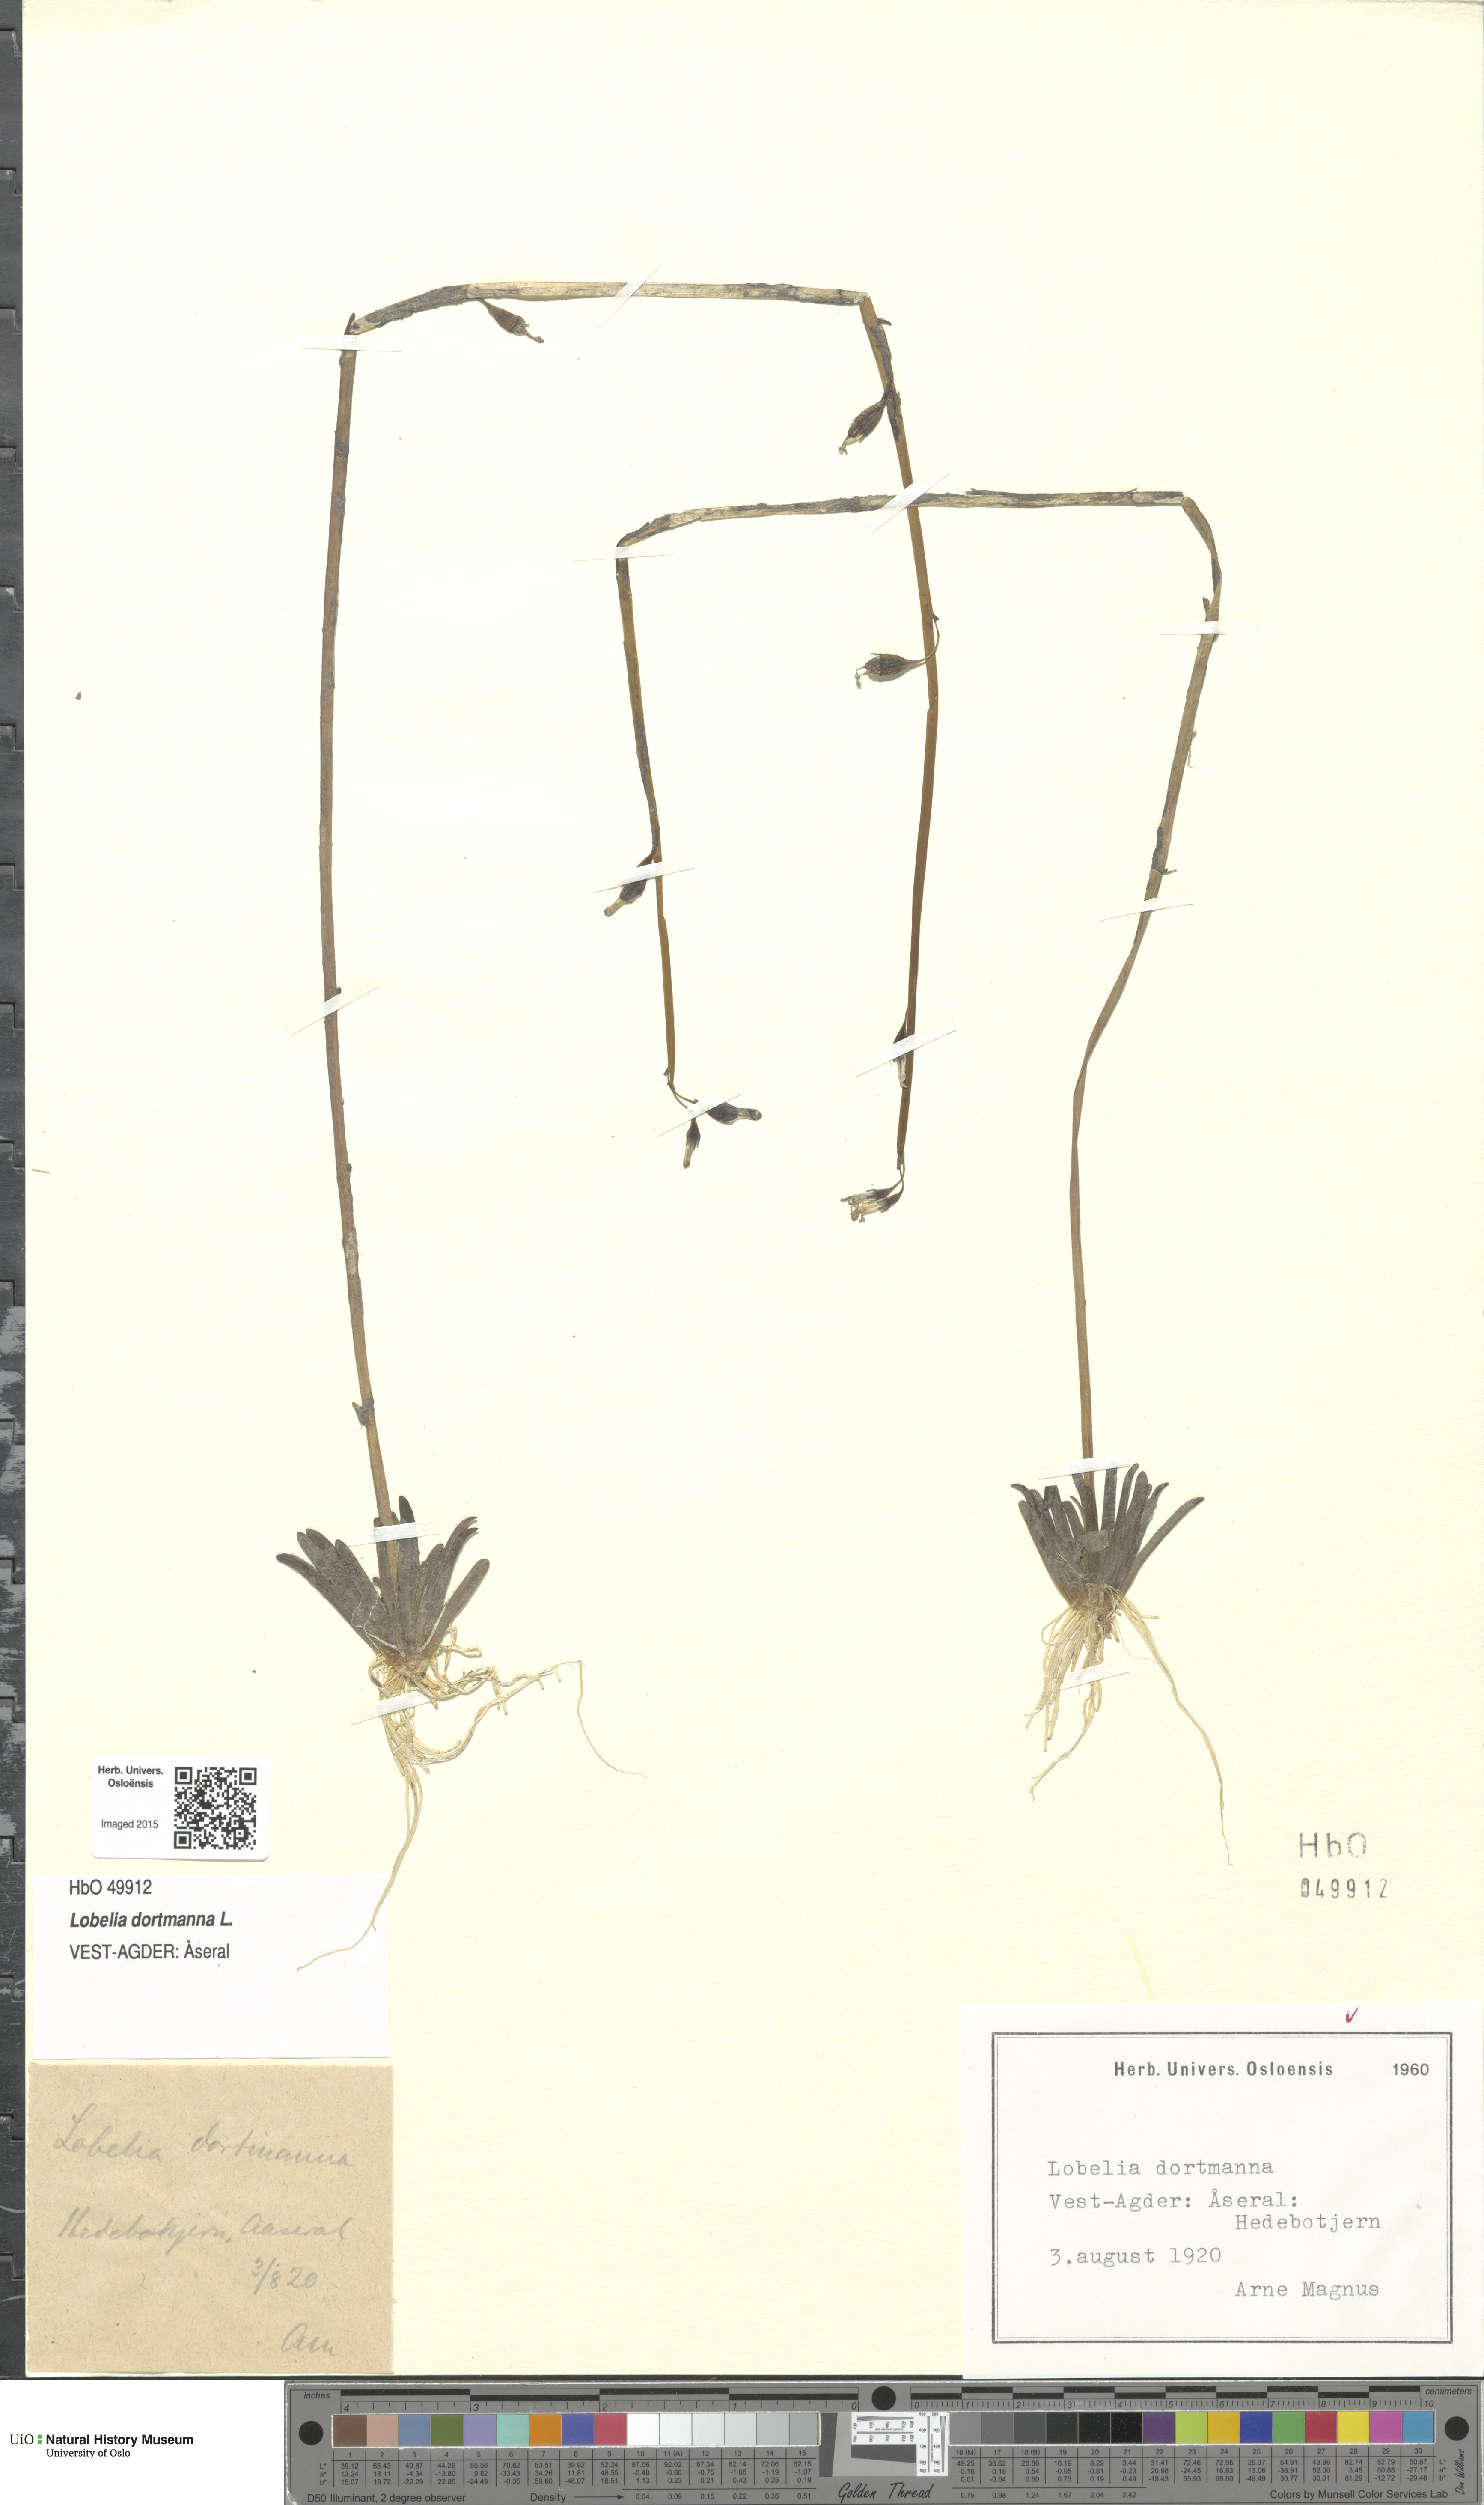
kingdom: Plantae
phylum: Tracheophyta
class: Magnoliopsida
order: Asterales
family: Campanulaceae
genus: Lobelia
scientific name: Lobelia dortmanna
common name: Water lobelia
